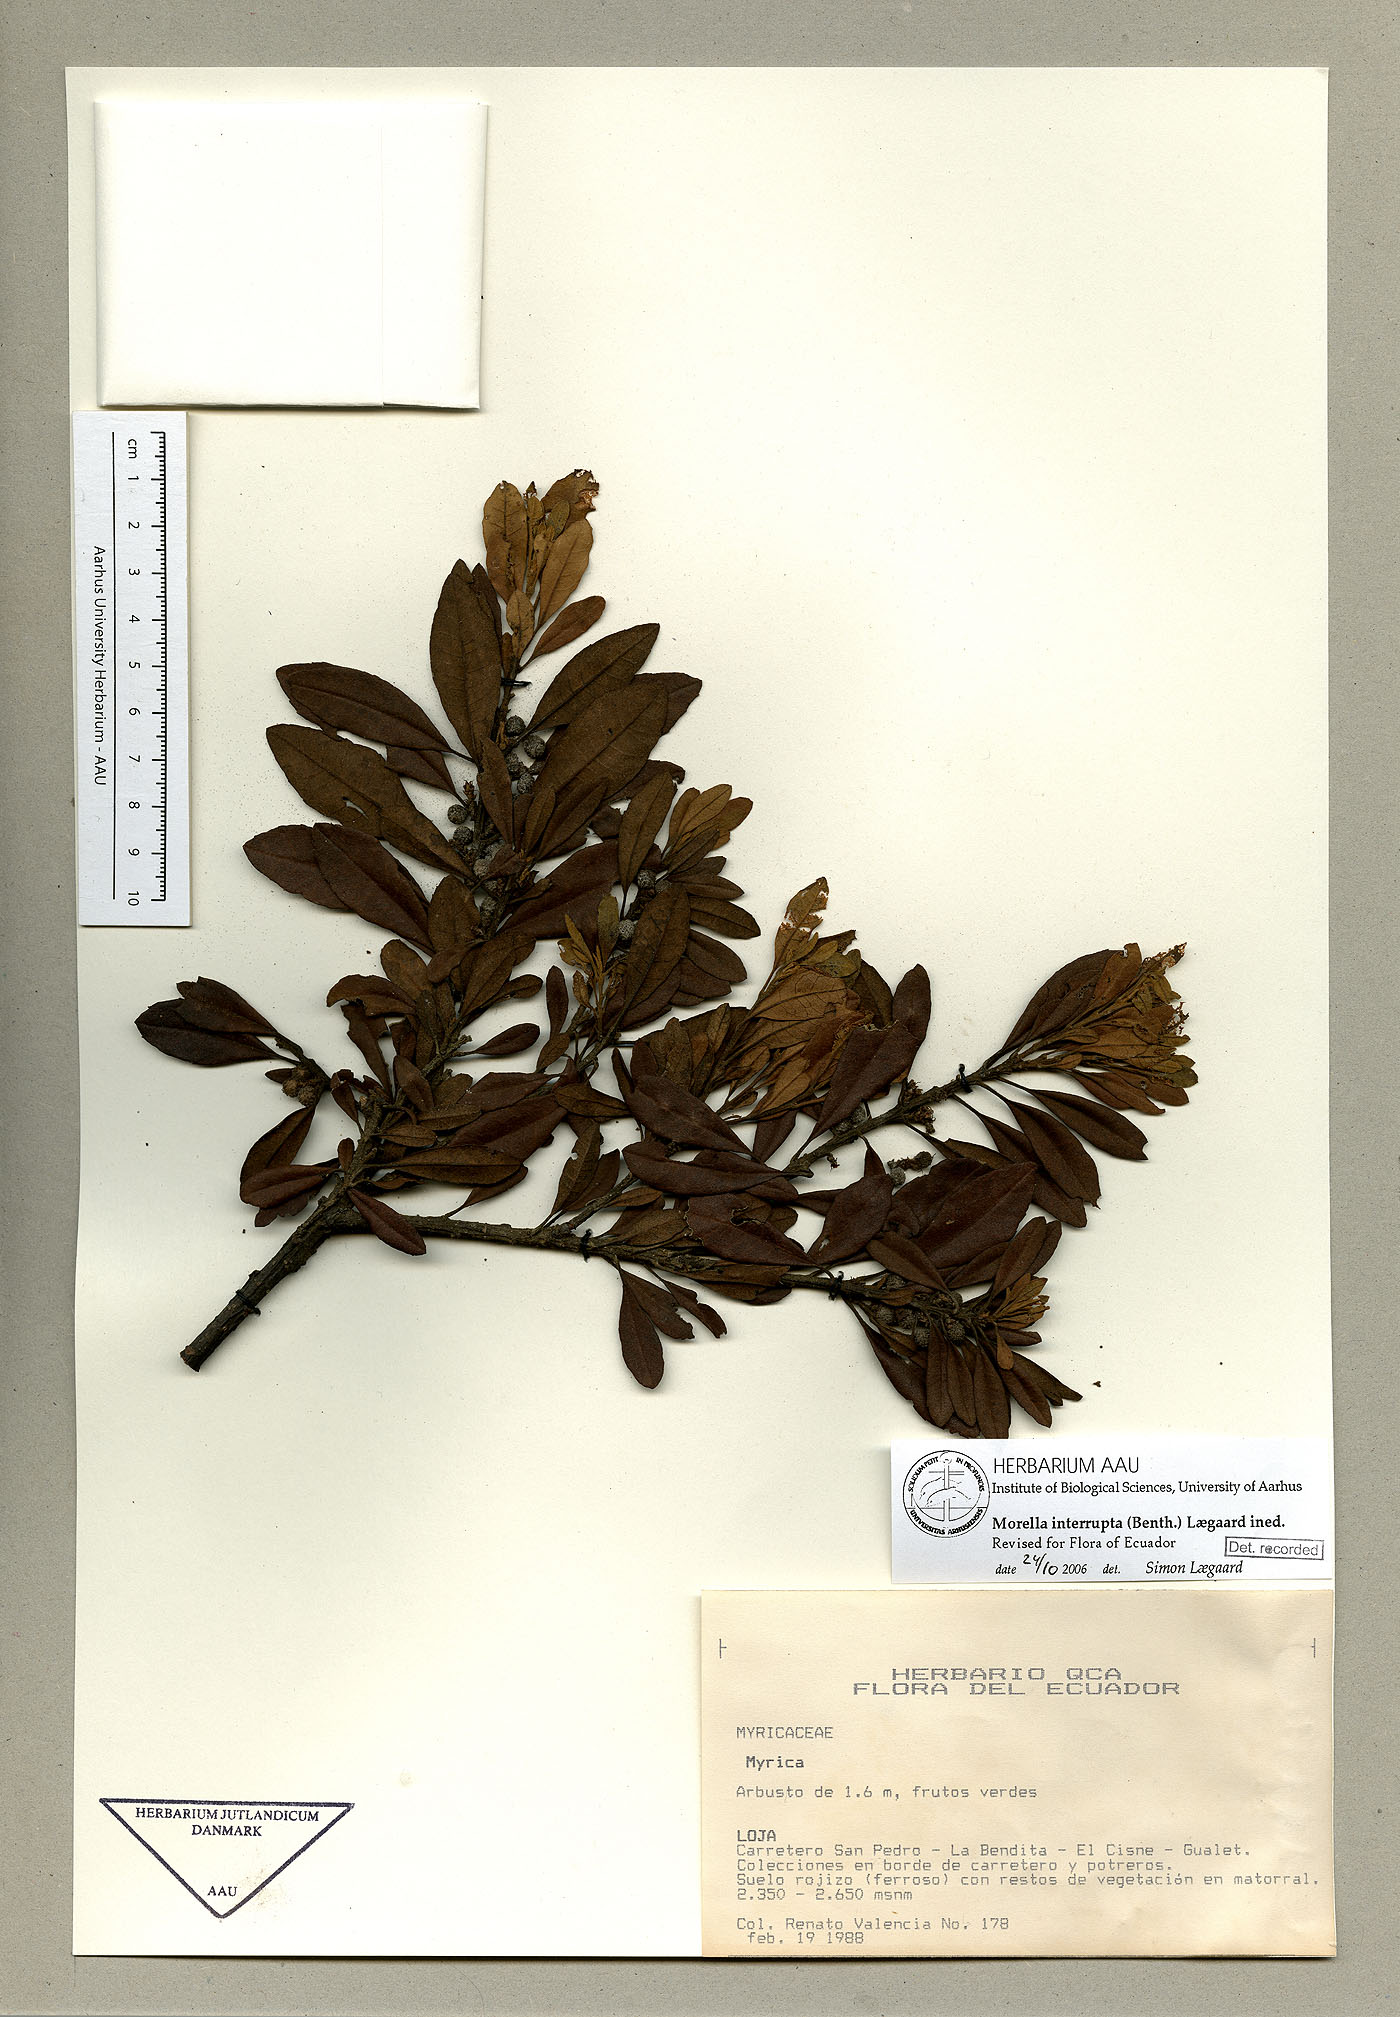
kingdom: Plantae
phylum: Tracheophyta
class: Magnoliopsida
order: Fagales
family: Myricaceae
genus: Morella
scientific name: Morella interrupta
